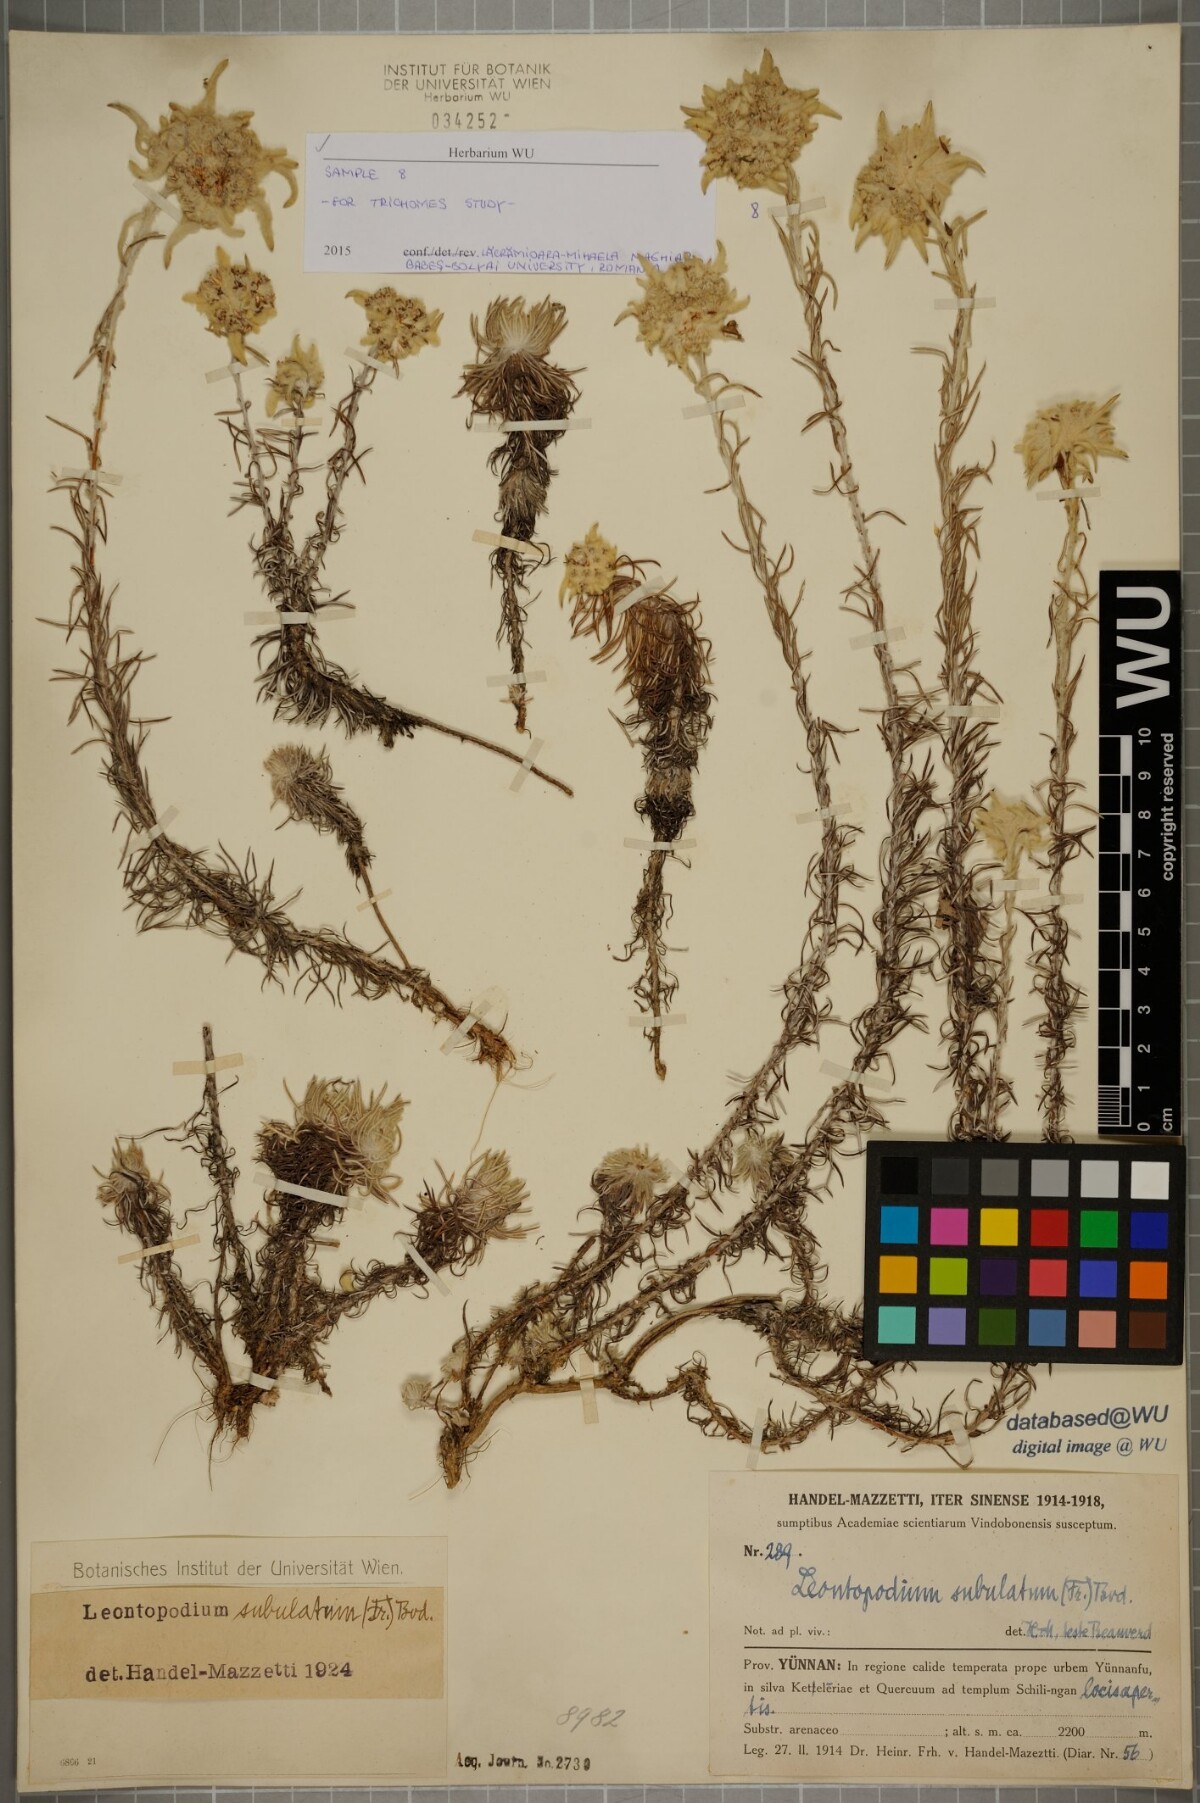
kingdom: Plantae
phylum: Tracheophyta
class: Magnoliopsida
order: Asterales
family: Asteraceae
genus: Leontopodium
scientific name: Leontopodium andersonii
